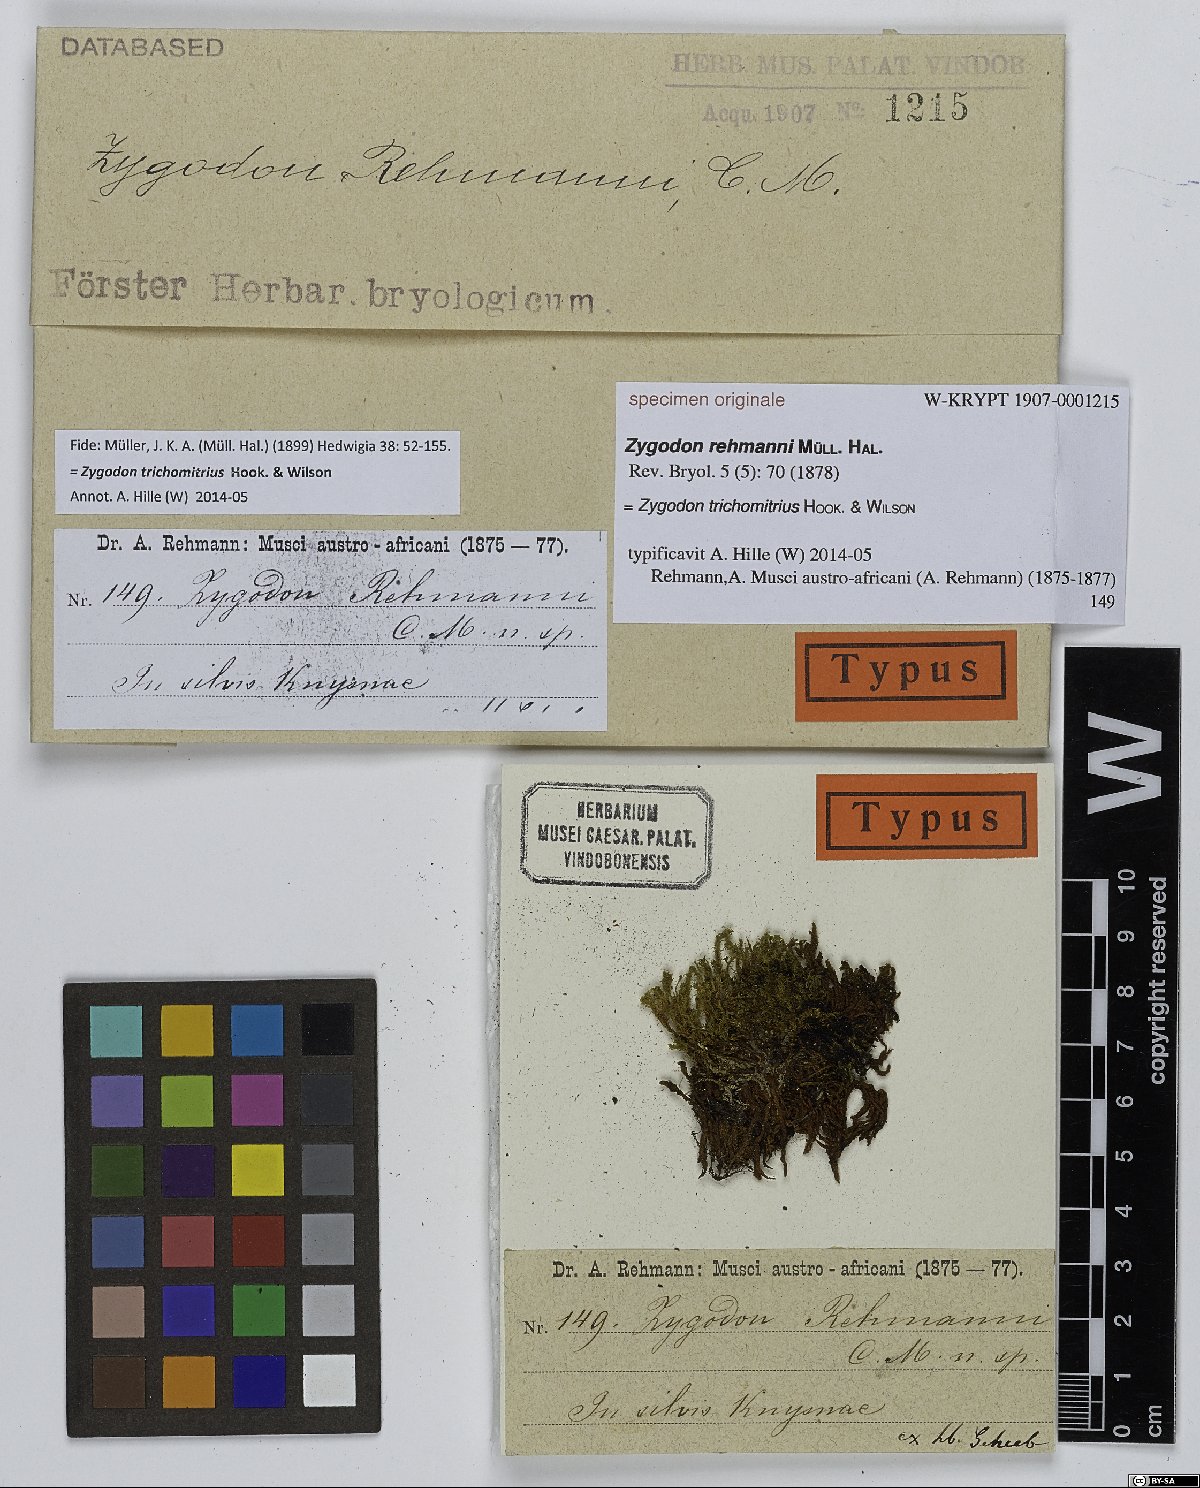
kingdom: Plantae
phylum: Bryophyta
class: Bryopsida
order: Orthotrichales
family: Orthotrichaceae
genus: Zygodon
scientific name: Zygodon
